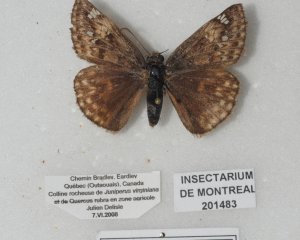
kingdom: Animalia
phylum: Arthropoda
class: Insecta
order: Lepidoptera
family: Hesperiidae
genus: Gesta
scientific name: Gesta
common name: Juvenal's Duskywing
